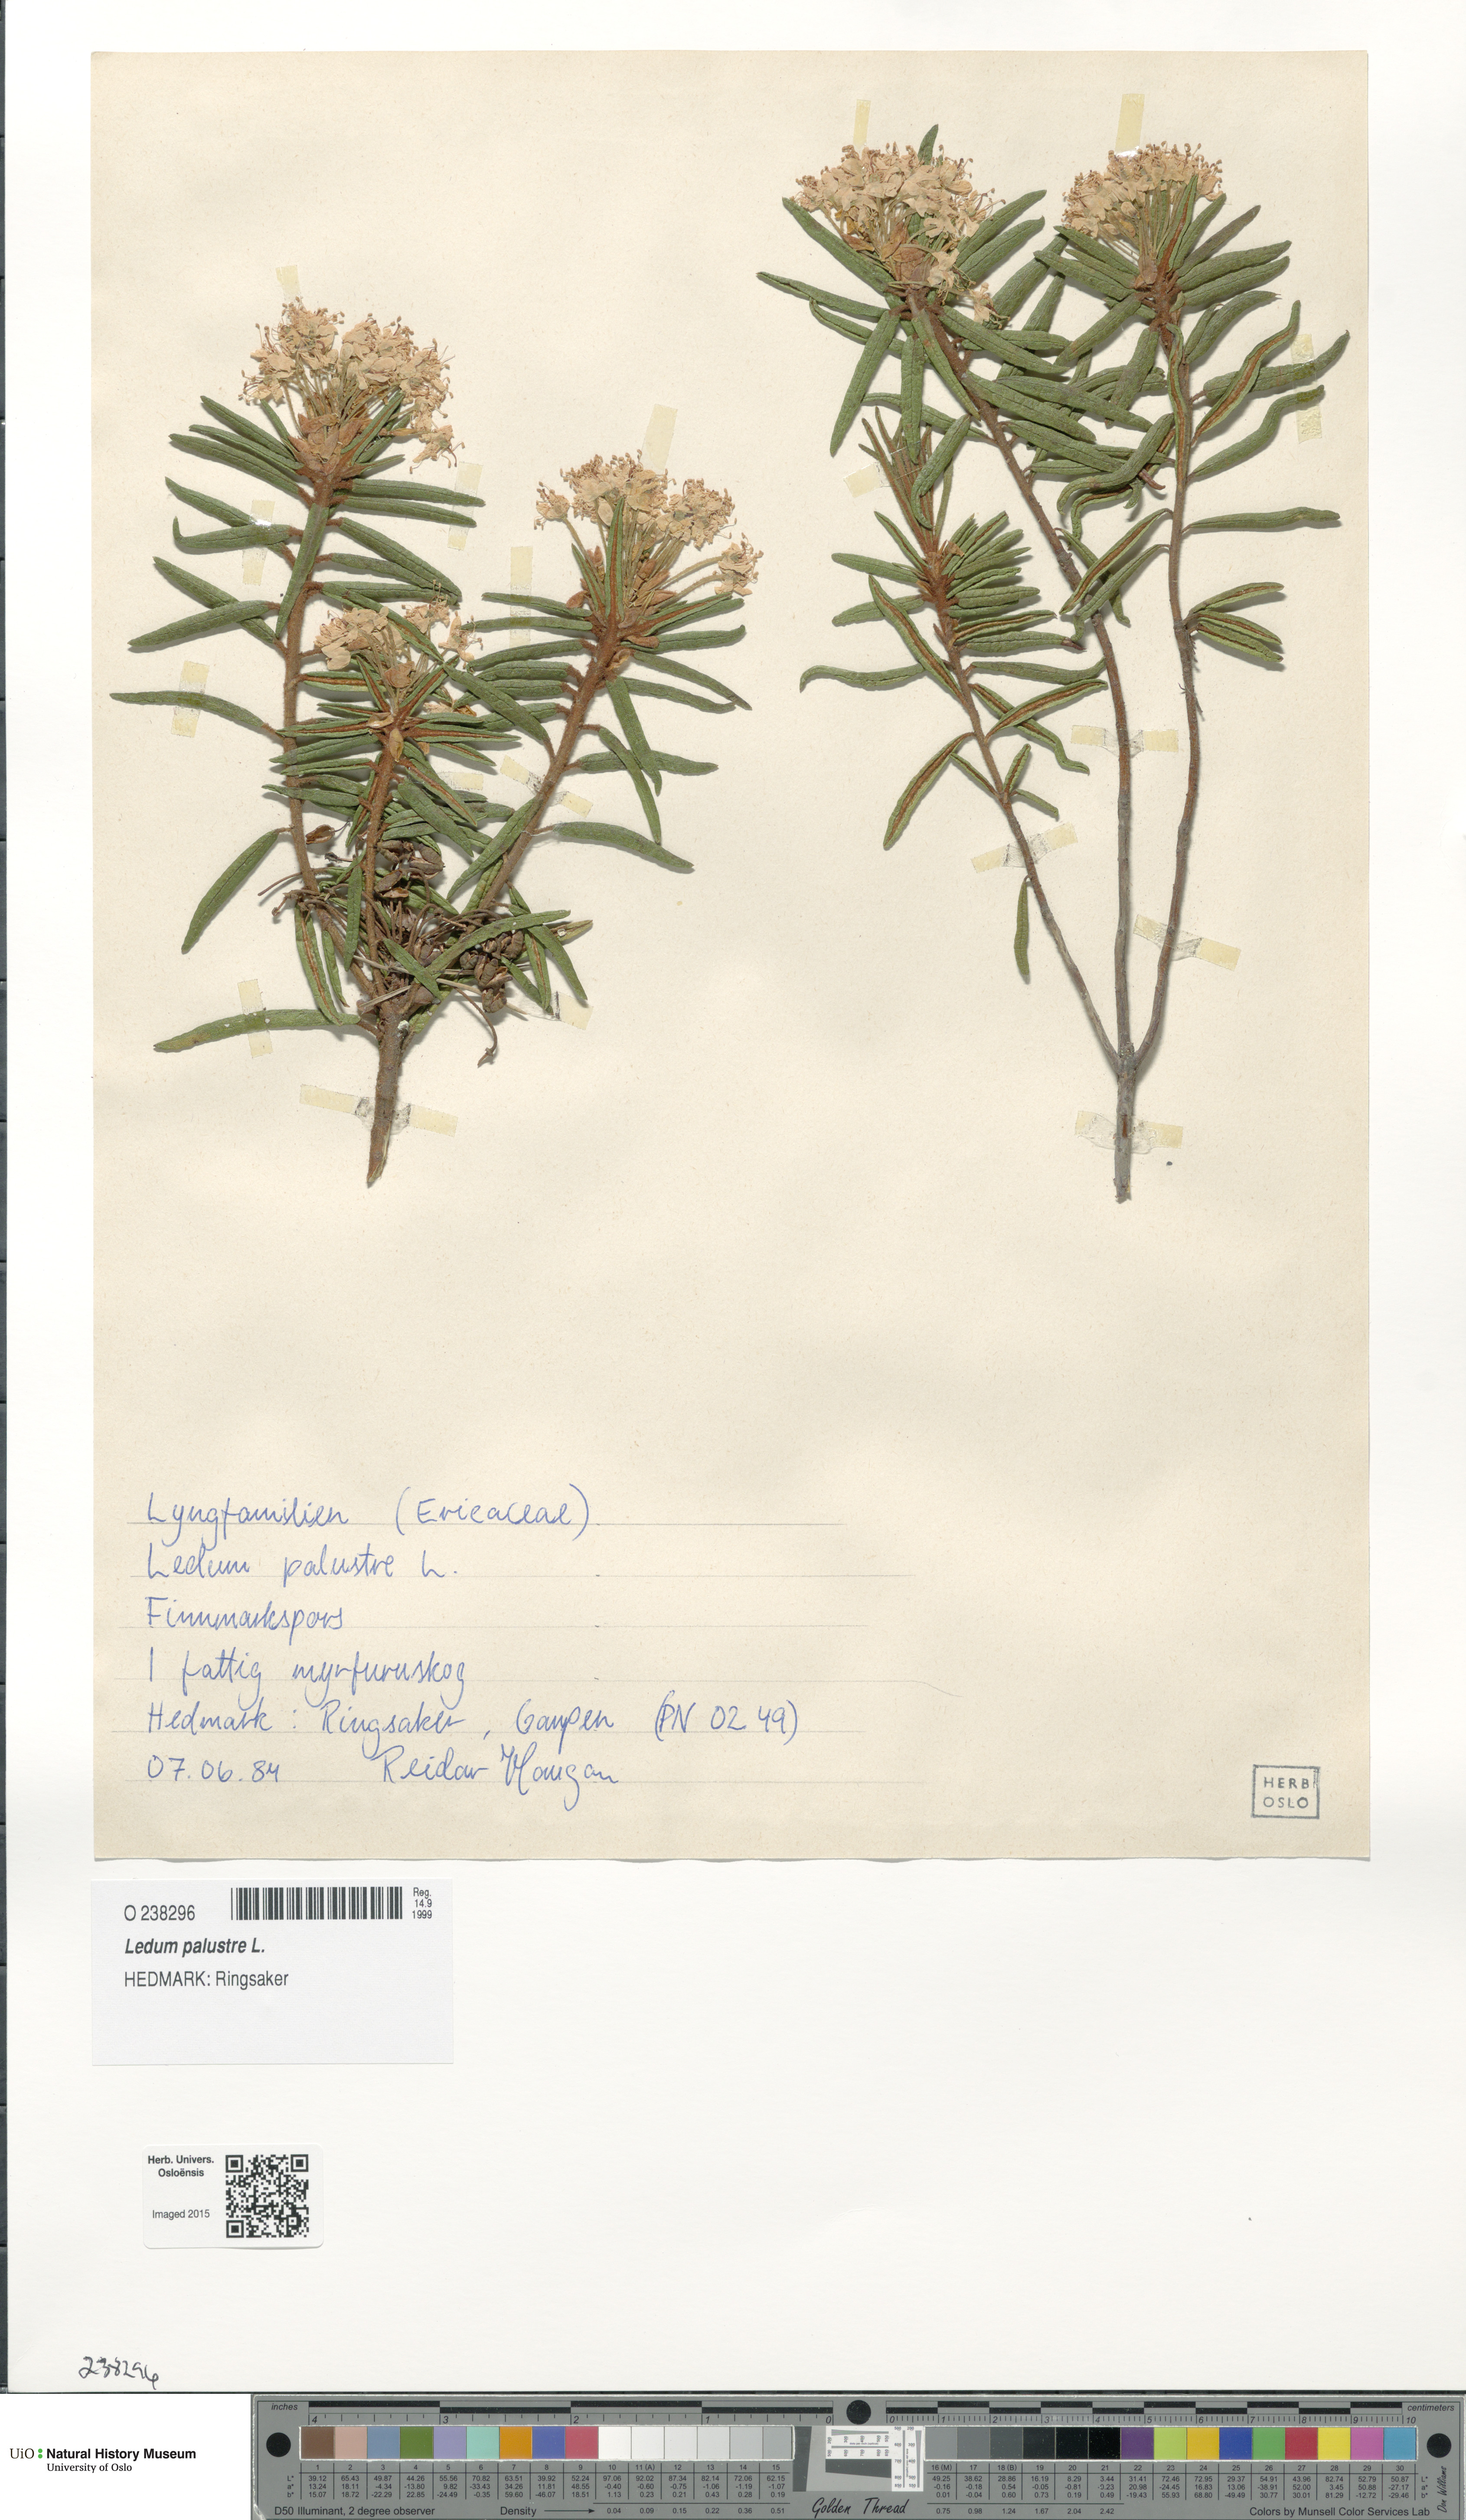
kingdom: Plantae
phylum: Tracheophyta
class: Magnoliopsida
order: Ericales
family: Ericaceae
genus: Rhododendron
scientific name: Rhododendron tomentosum
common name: Marsh labrador tea
